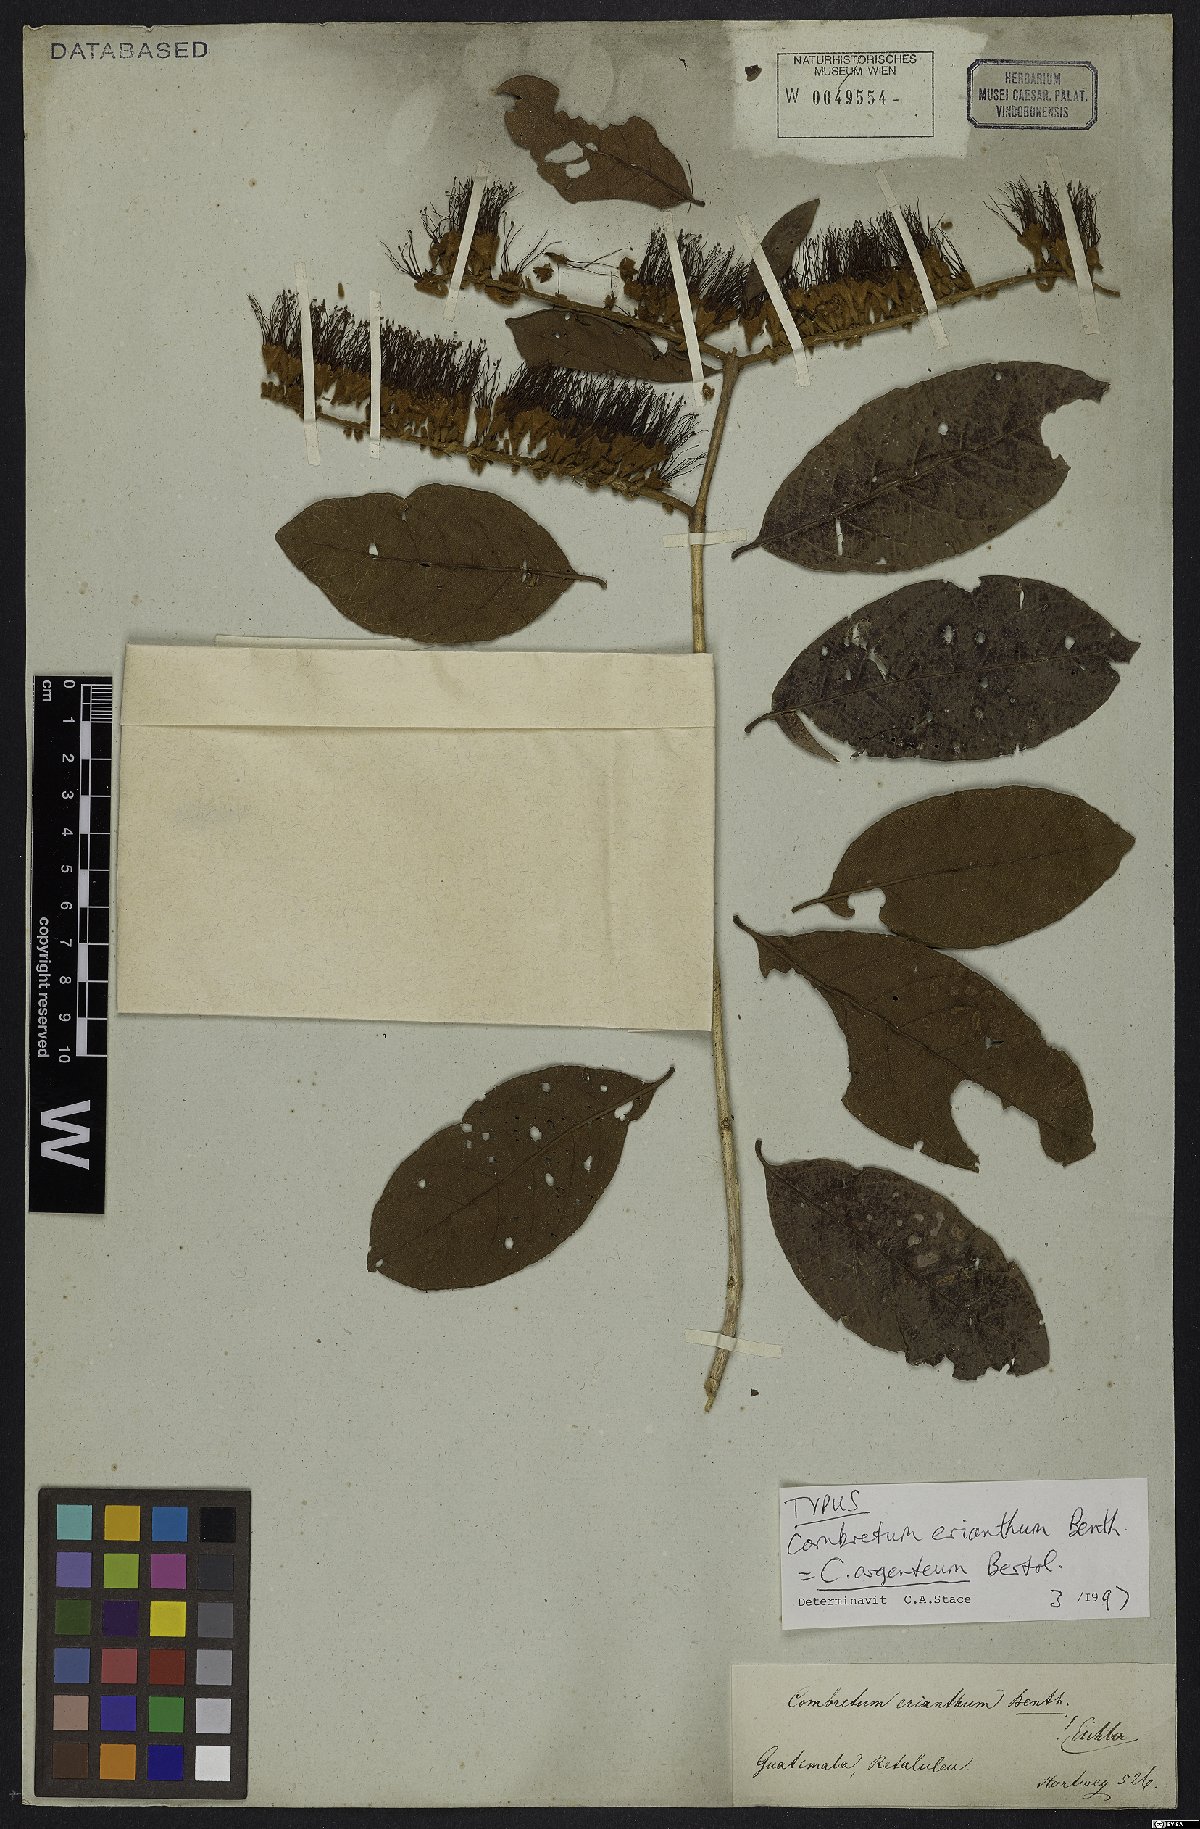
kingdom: Plantae
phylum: Tracheophyta
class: Magnoliopsida
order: Myrtales
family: Combretaceae
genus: Combretum
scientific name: Combretum argenteum
